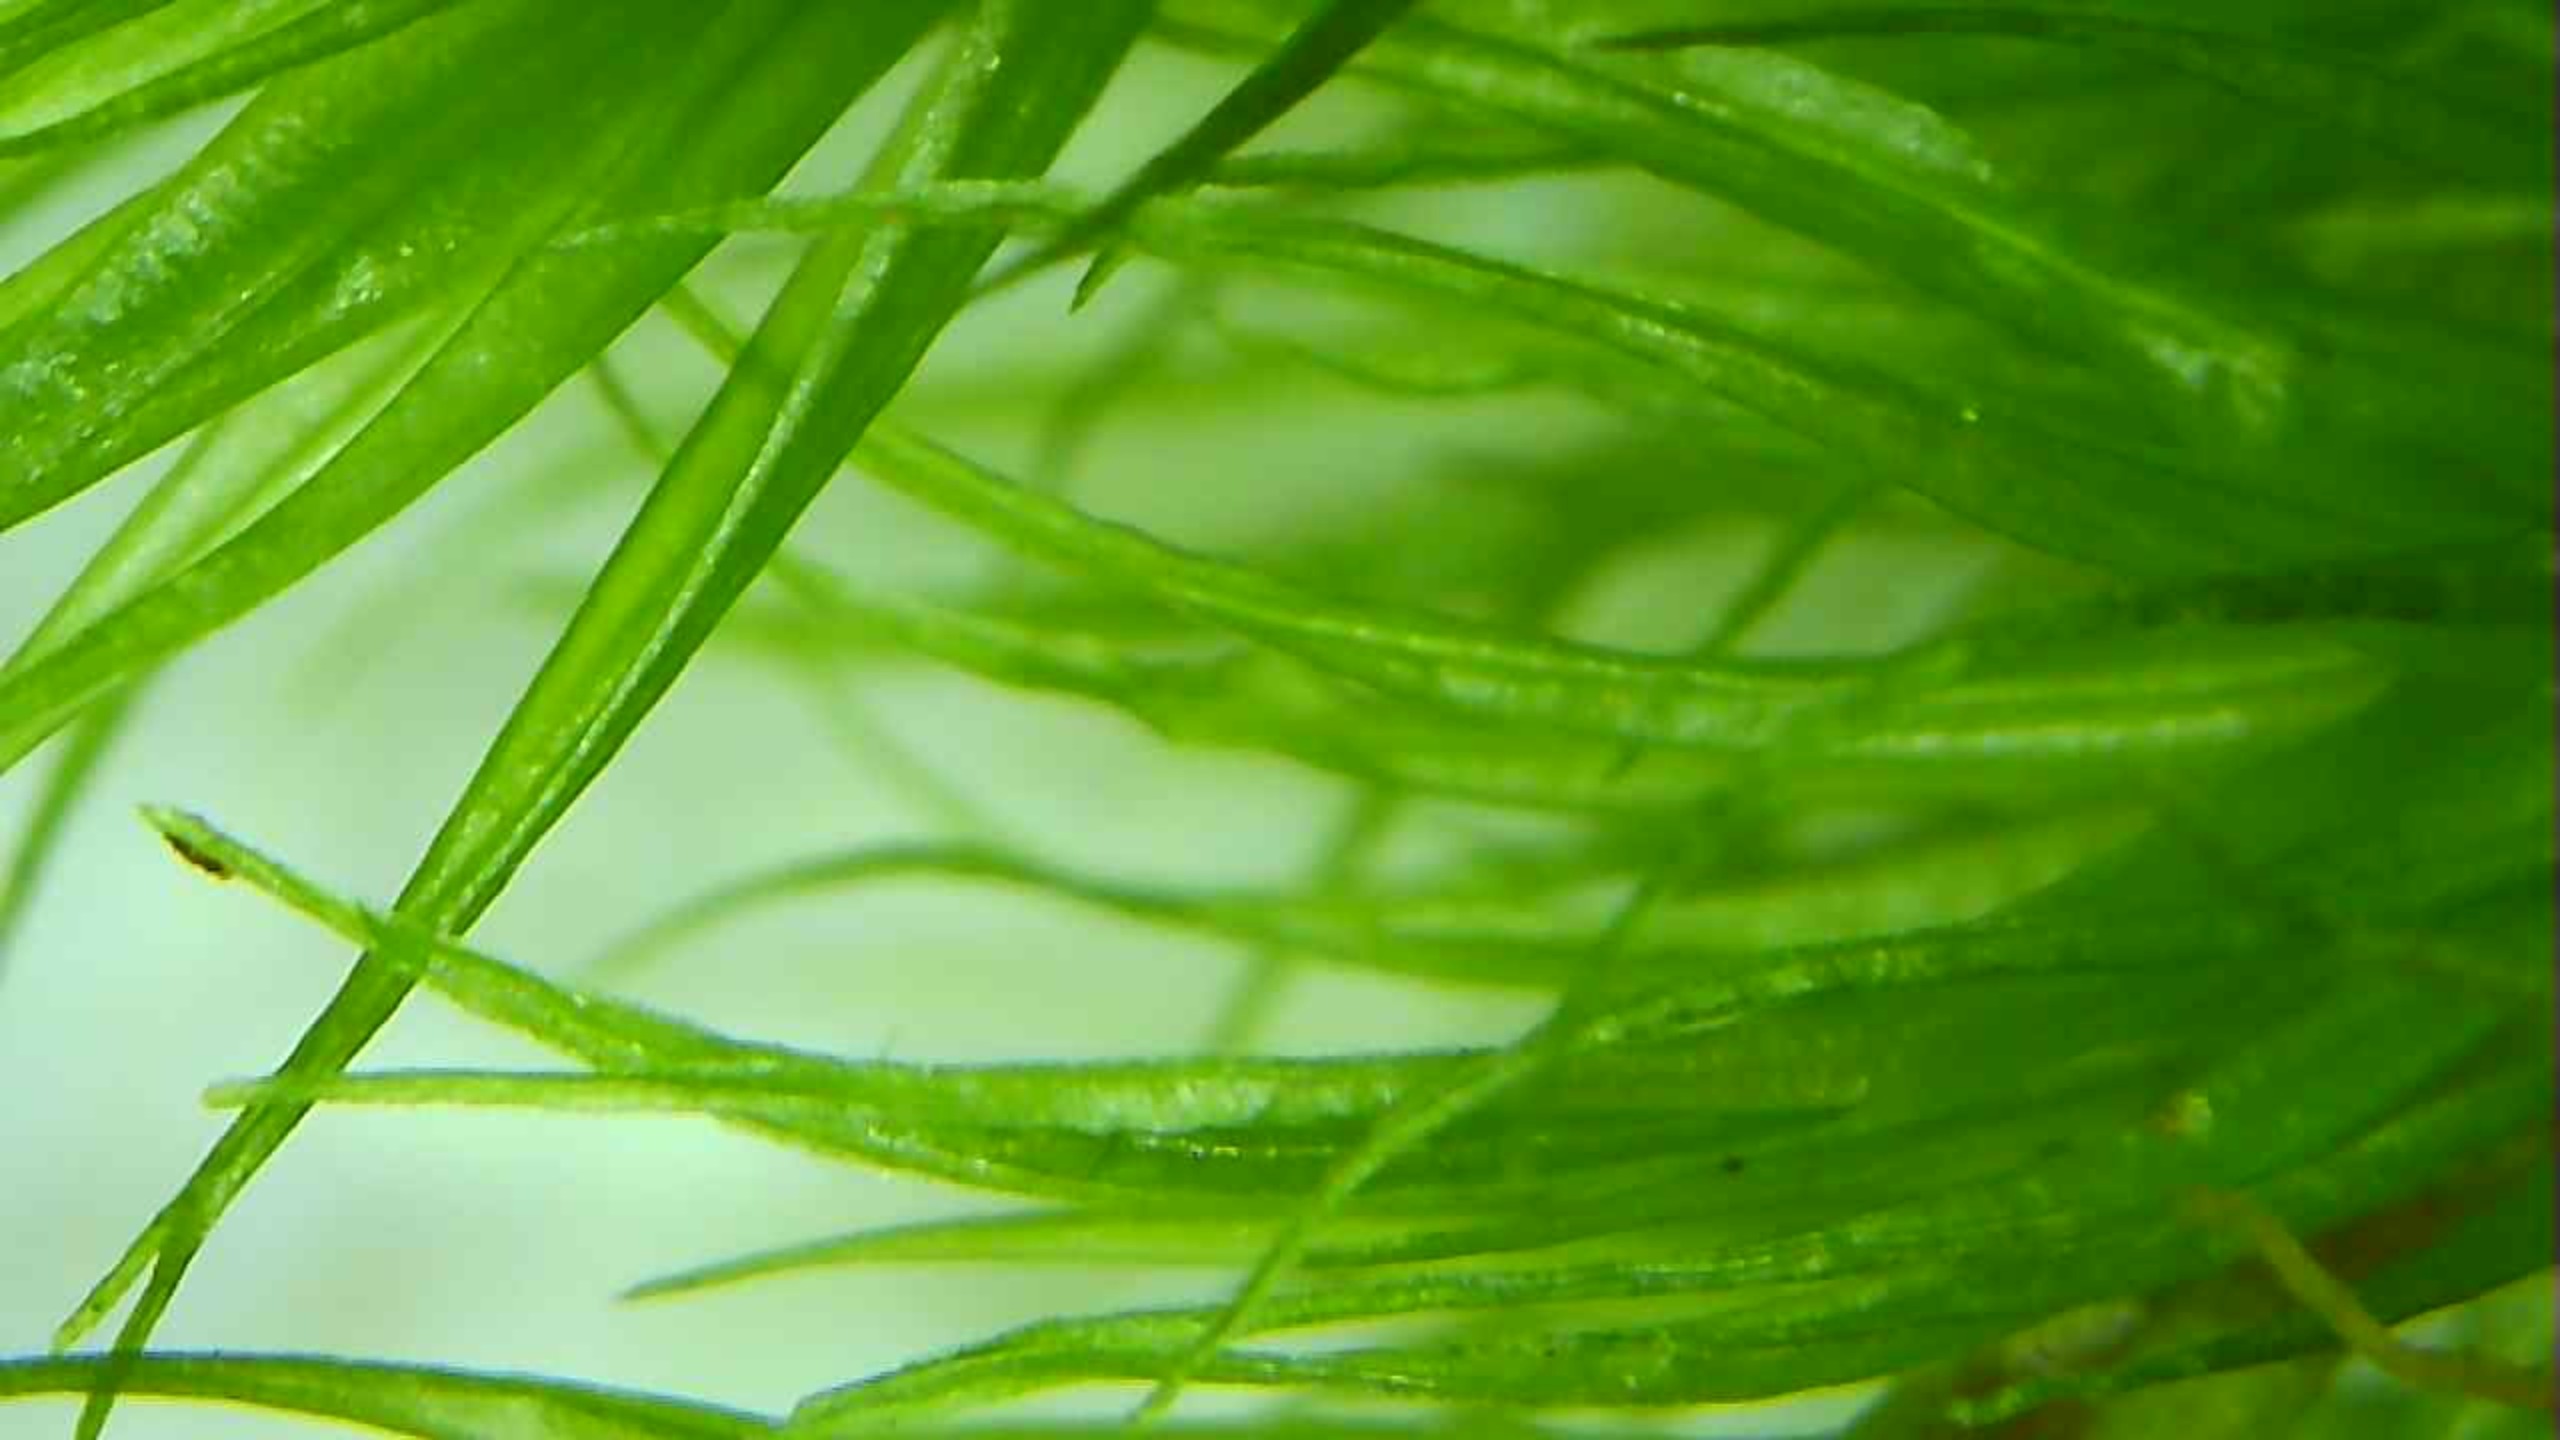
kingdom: Plantae
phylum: Bryophyta
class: Bryopsida
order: Dicranales
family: Dicranaceae
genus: Dicranum
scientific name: Dicranum scoparium
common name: Almindelig kløvtand
